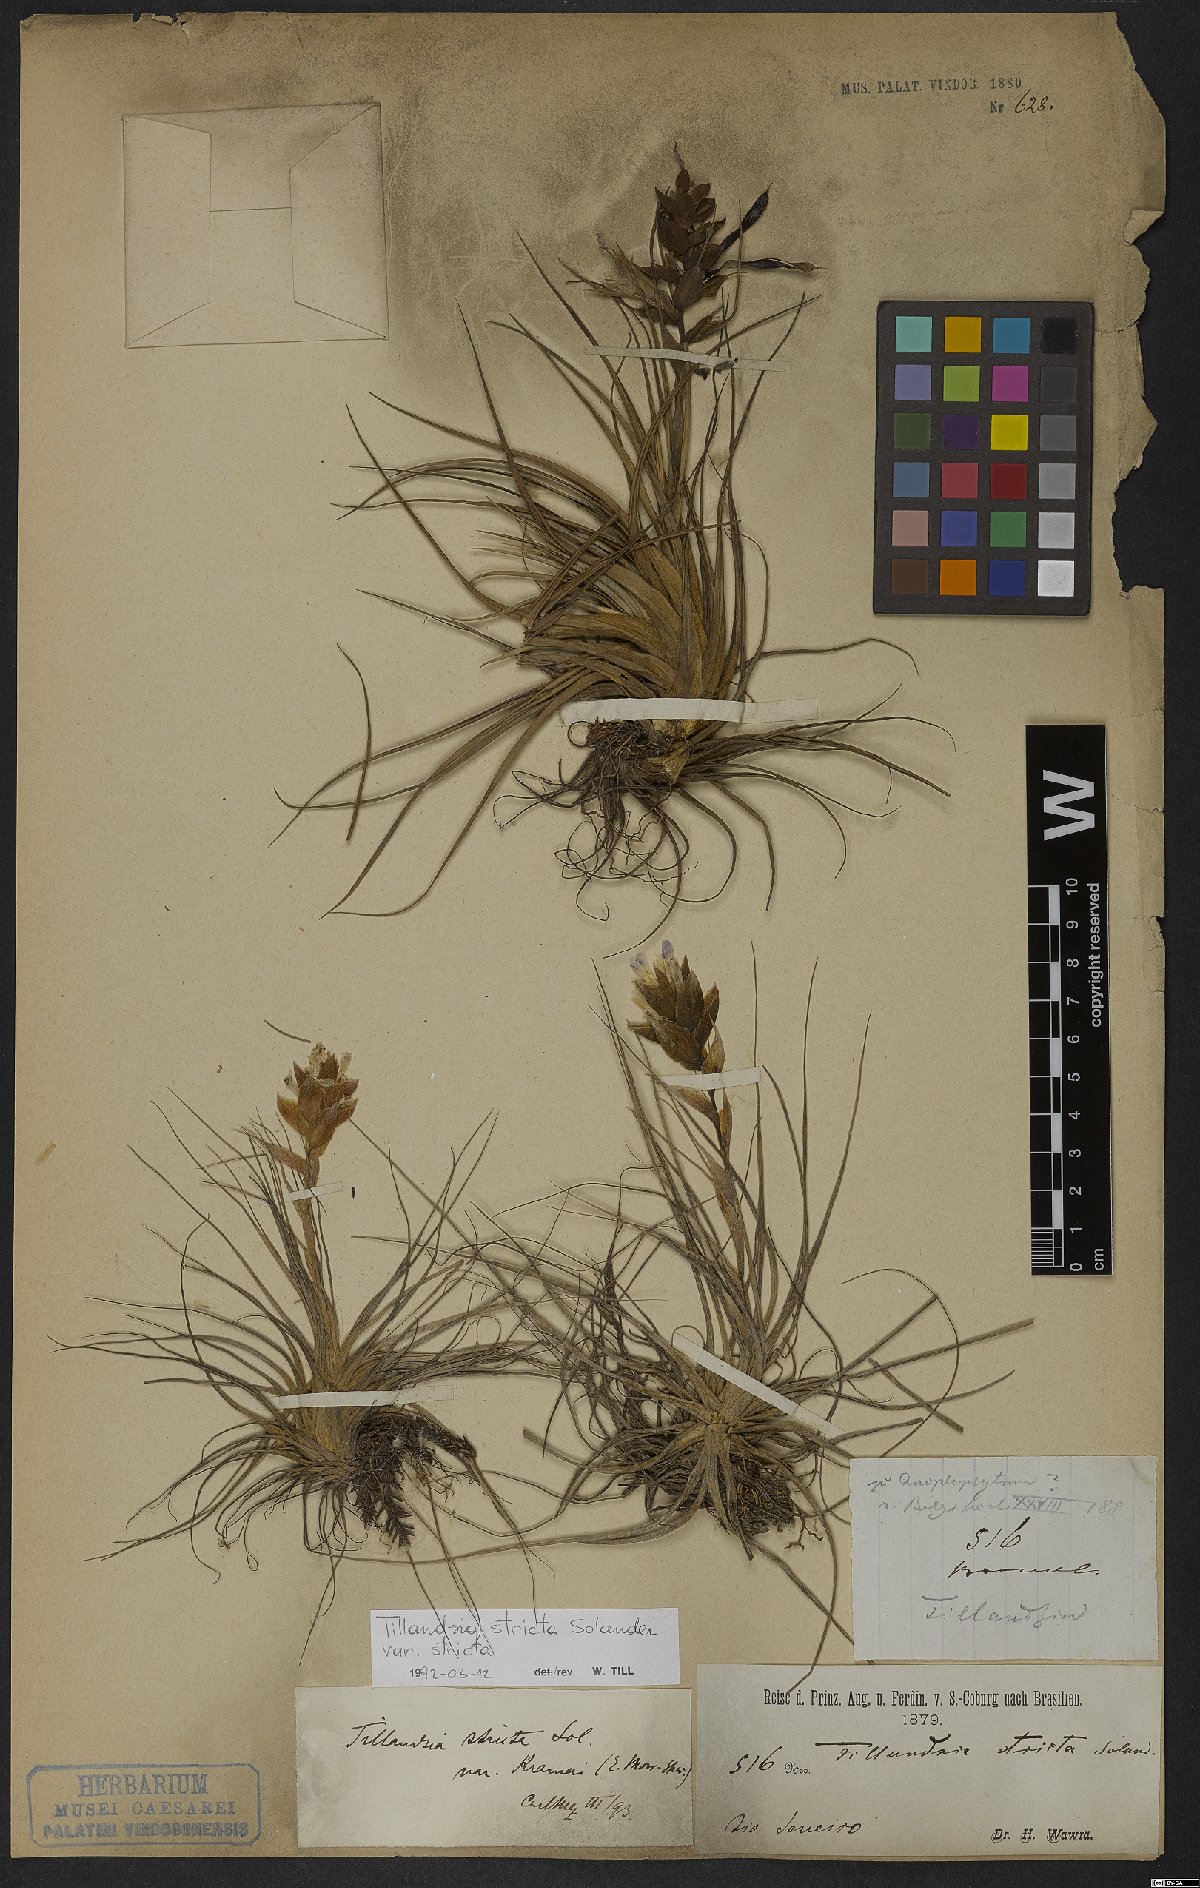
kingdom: Plantae
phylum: Tracheophyta
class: Liliopsida
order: Poales
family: Bromeliaceae
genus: Tillandsia
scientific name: Tillandsia stricta
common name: Airplant
